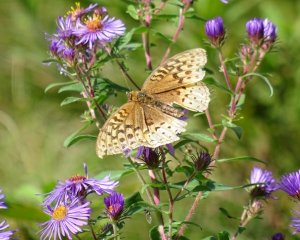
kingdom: Animalia
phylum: Arthropoda
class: Insecta
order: Lepidoptera
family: Nymphalidae
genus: Speyeria
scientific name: Speyeria cybele
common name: Great Spangled Fritillary
